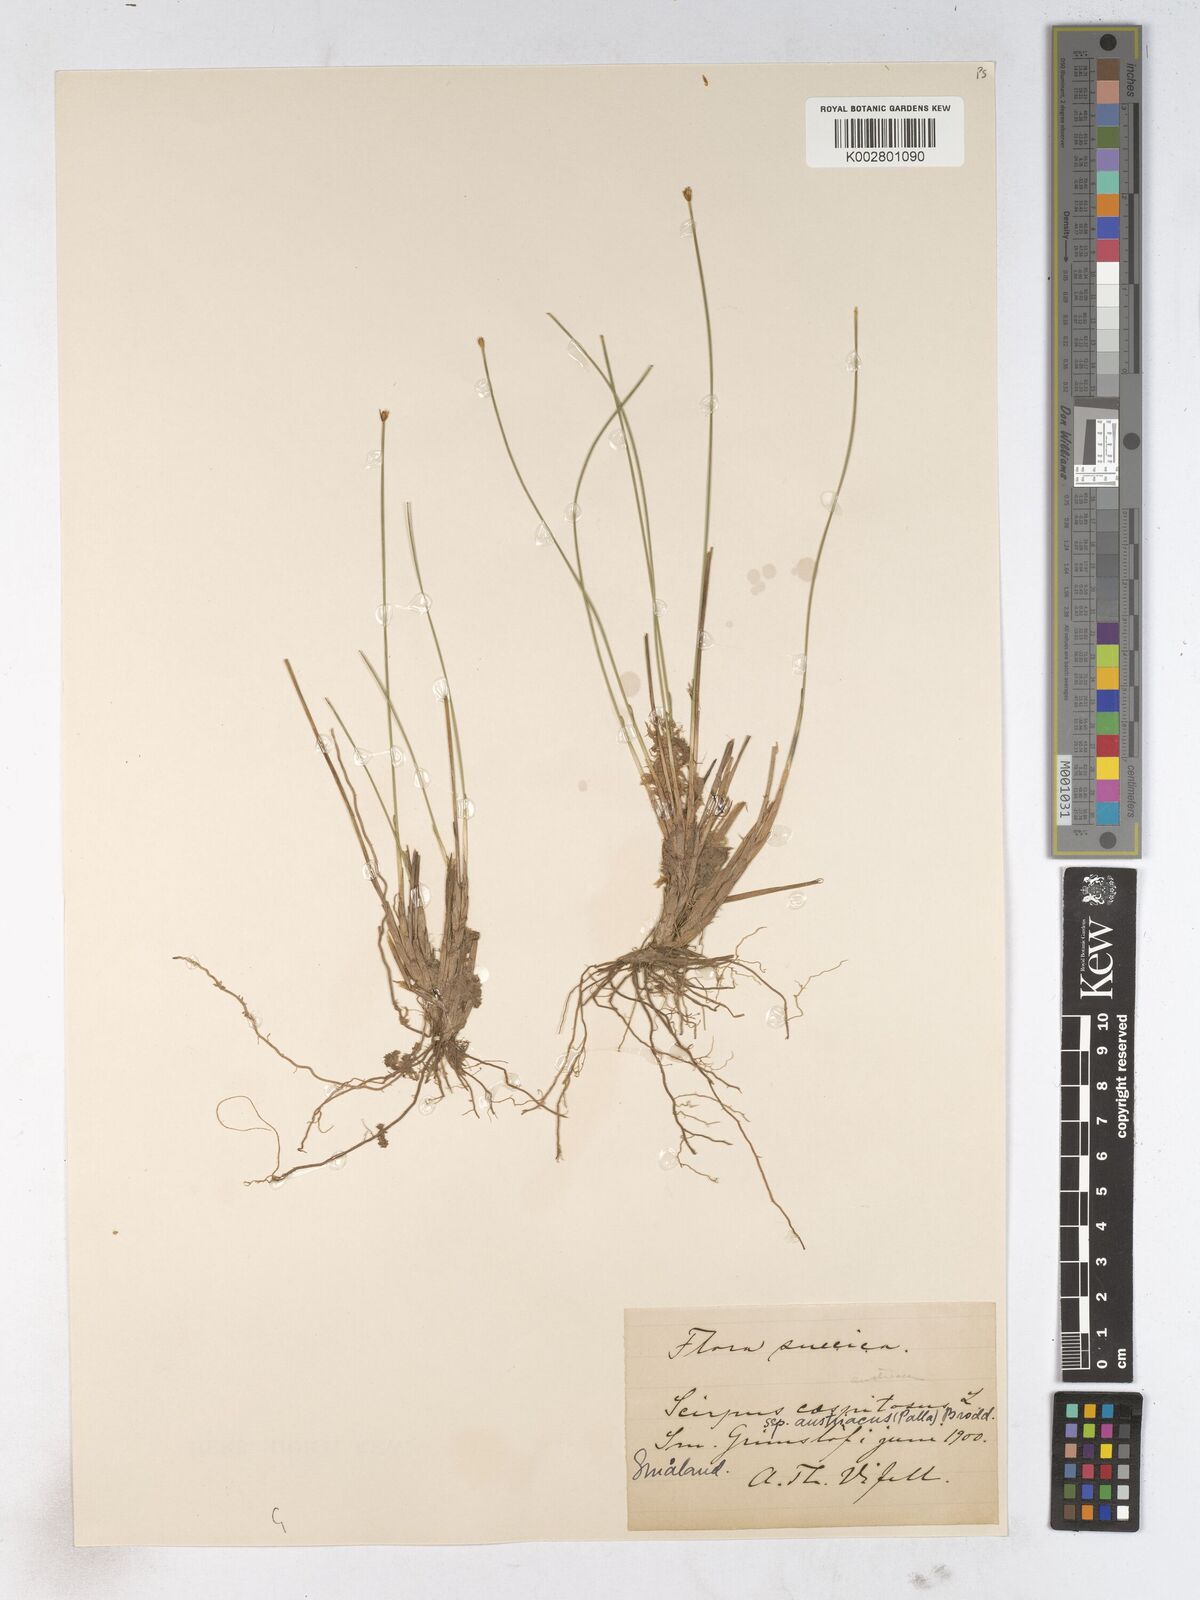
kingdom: Plantae
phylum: Tracheophyta
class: Liliopsida
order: Poales
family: Cyperaceae
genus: Trichophorum
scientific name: Trichophorum cespitosum
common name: Cespitose bulrush
